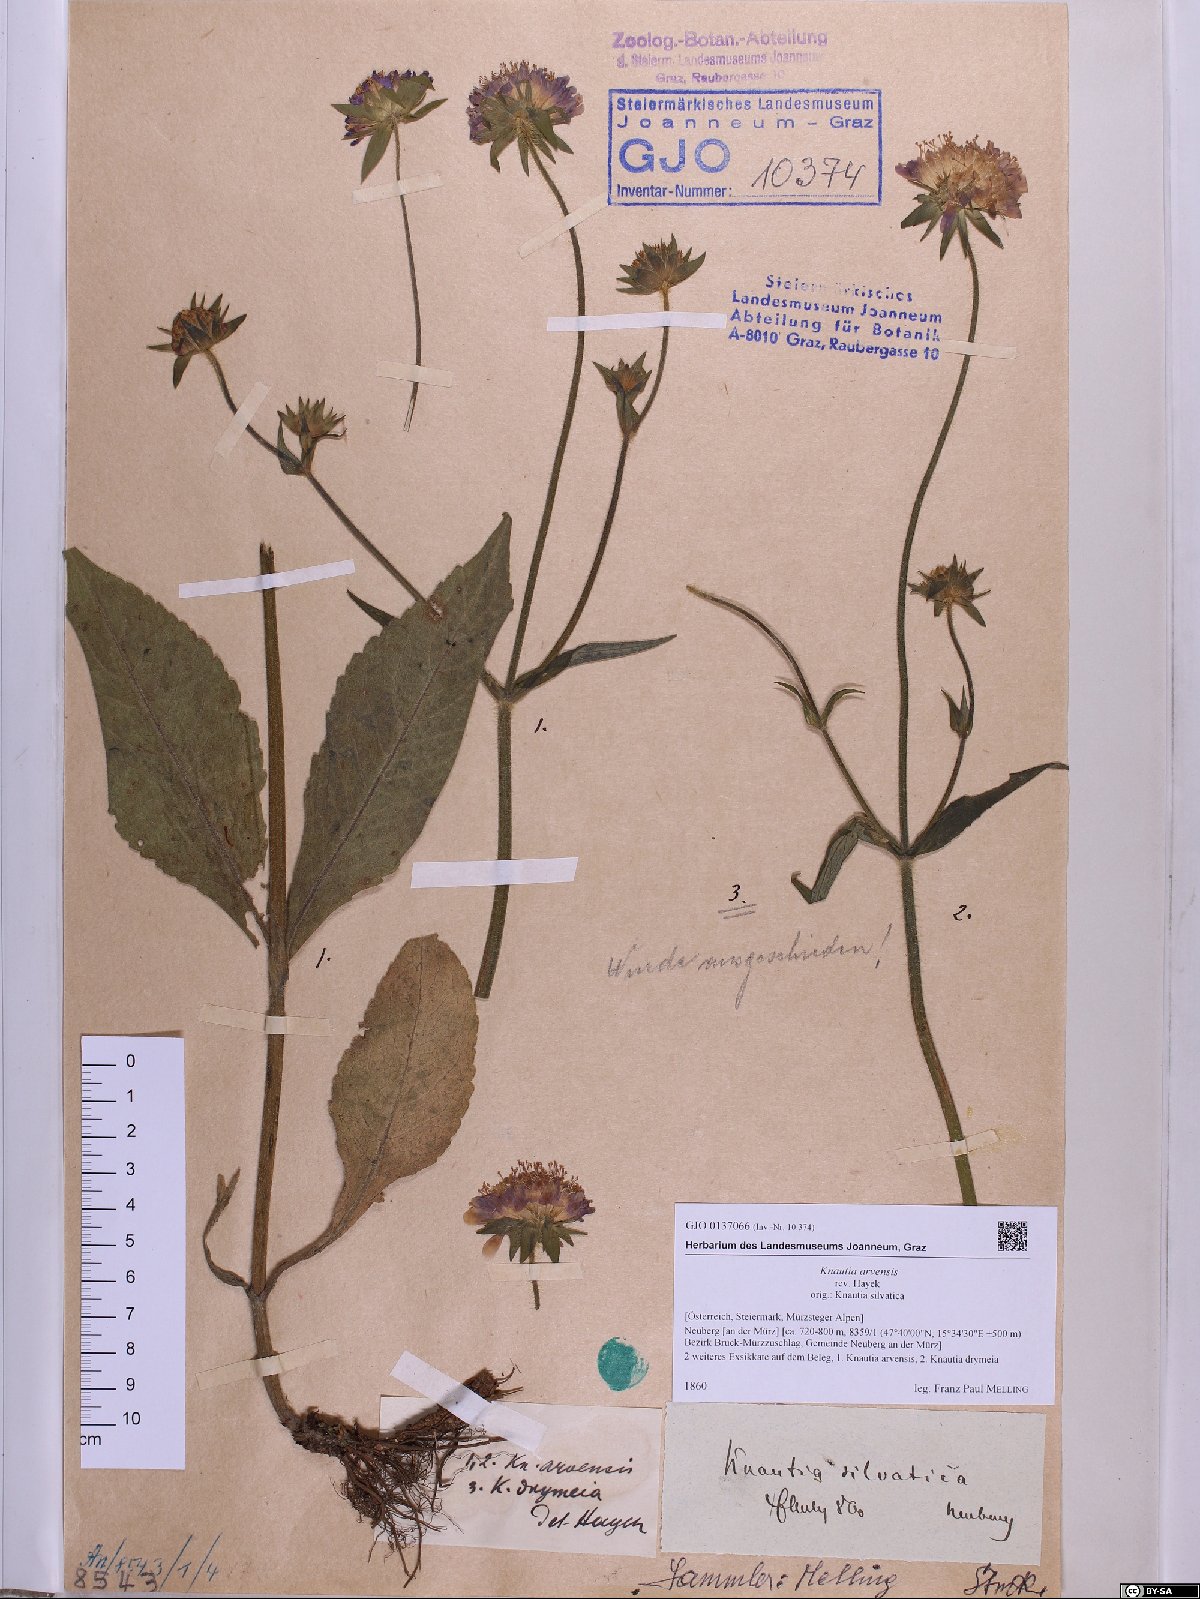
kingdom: Plantae
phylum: Tracheophyta
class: Magnoliopsida
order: Dipsacales
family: Caprifoliaceae
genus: Knautia
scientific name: Knautia arvensis
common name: Field scabiosa
